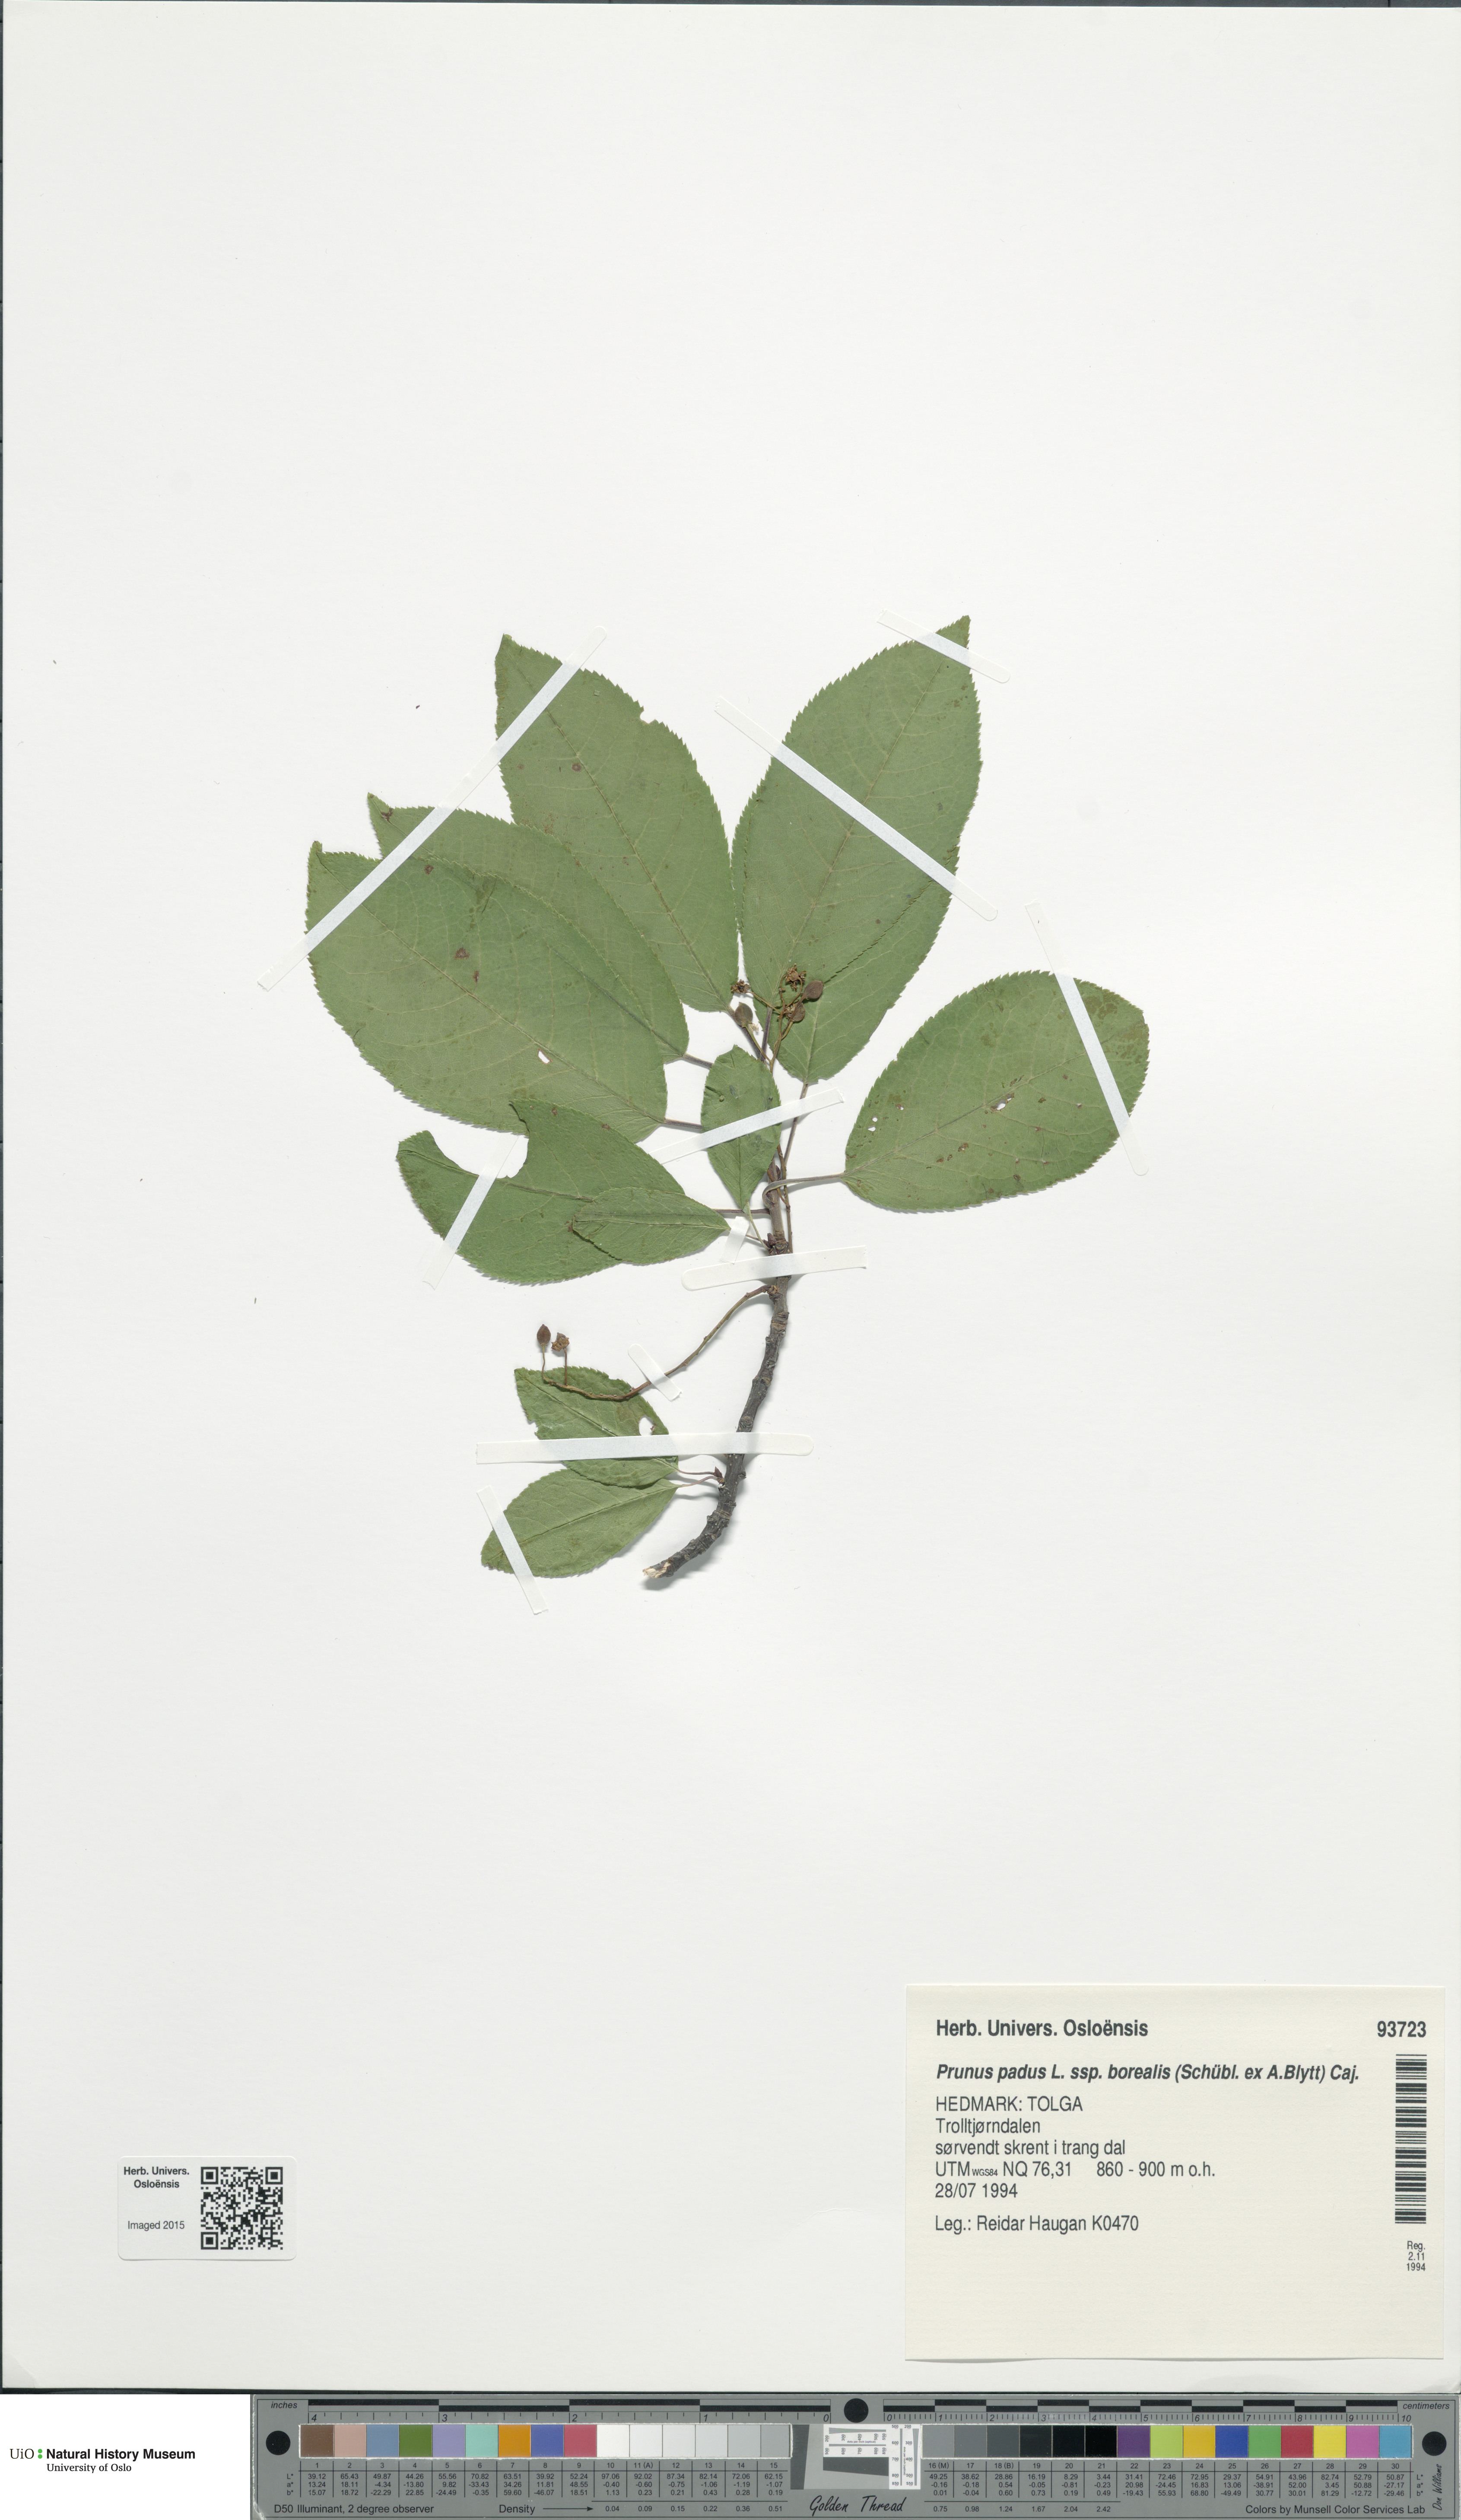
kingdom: Plantae
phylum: Tracheophyta
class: Magnoliopsida
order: Rosales
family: Rosaceae
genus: Prunus
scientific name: Prunus padus
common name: Bird cherry
